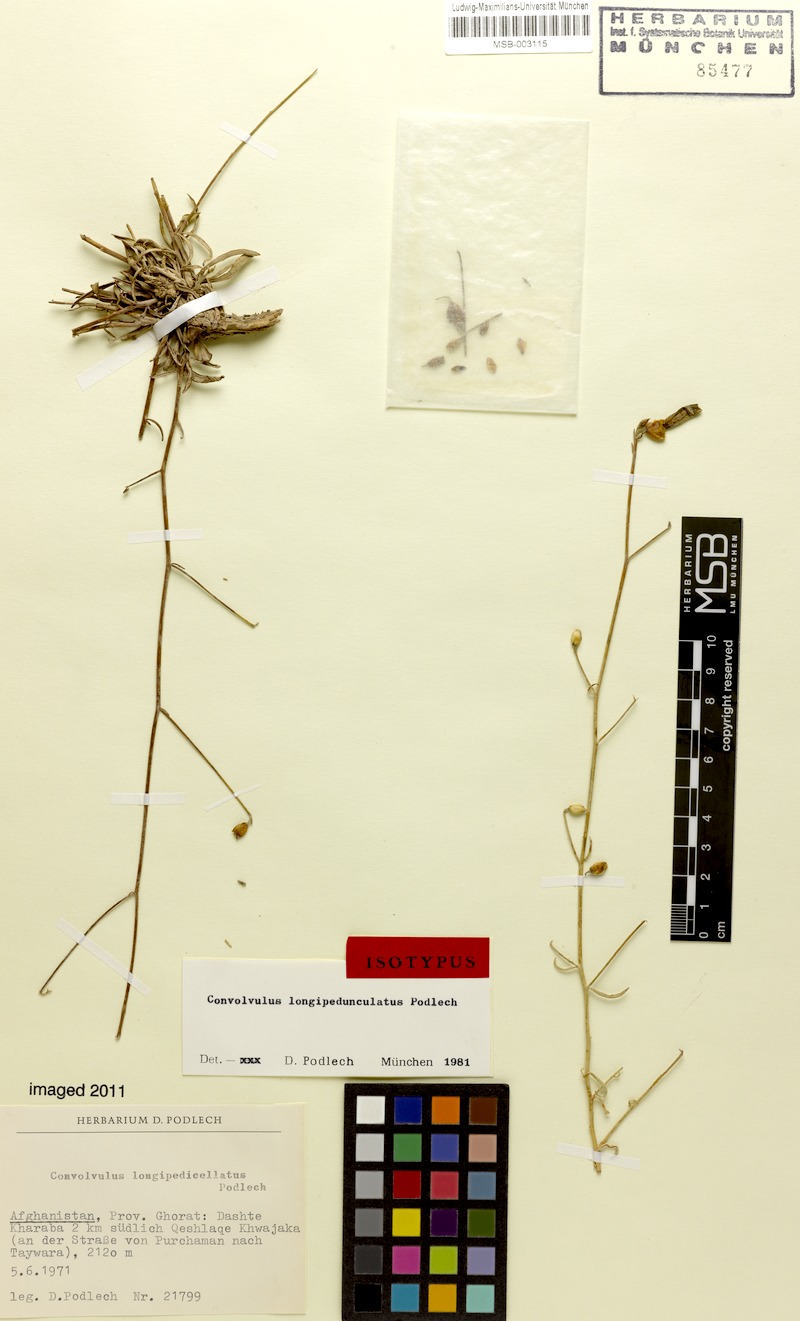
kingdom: Plantae
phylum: Tracheophyta
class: Magnoliopsida
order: Solanales
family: Convolvulaceae
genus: Convolvulus
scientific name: Convolvulus eremophilus
